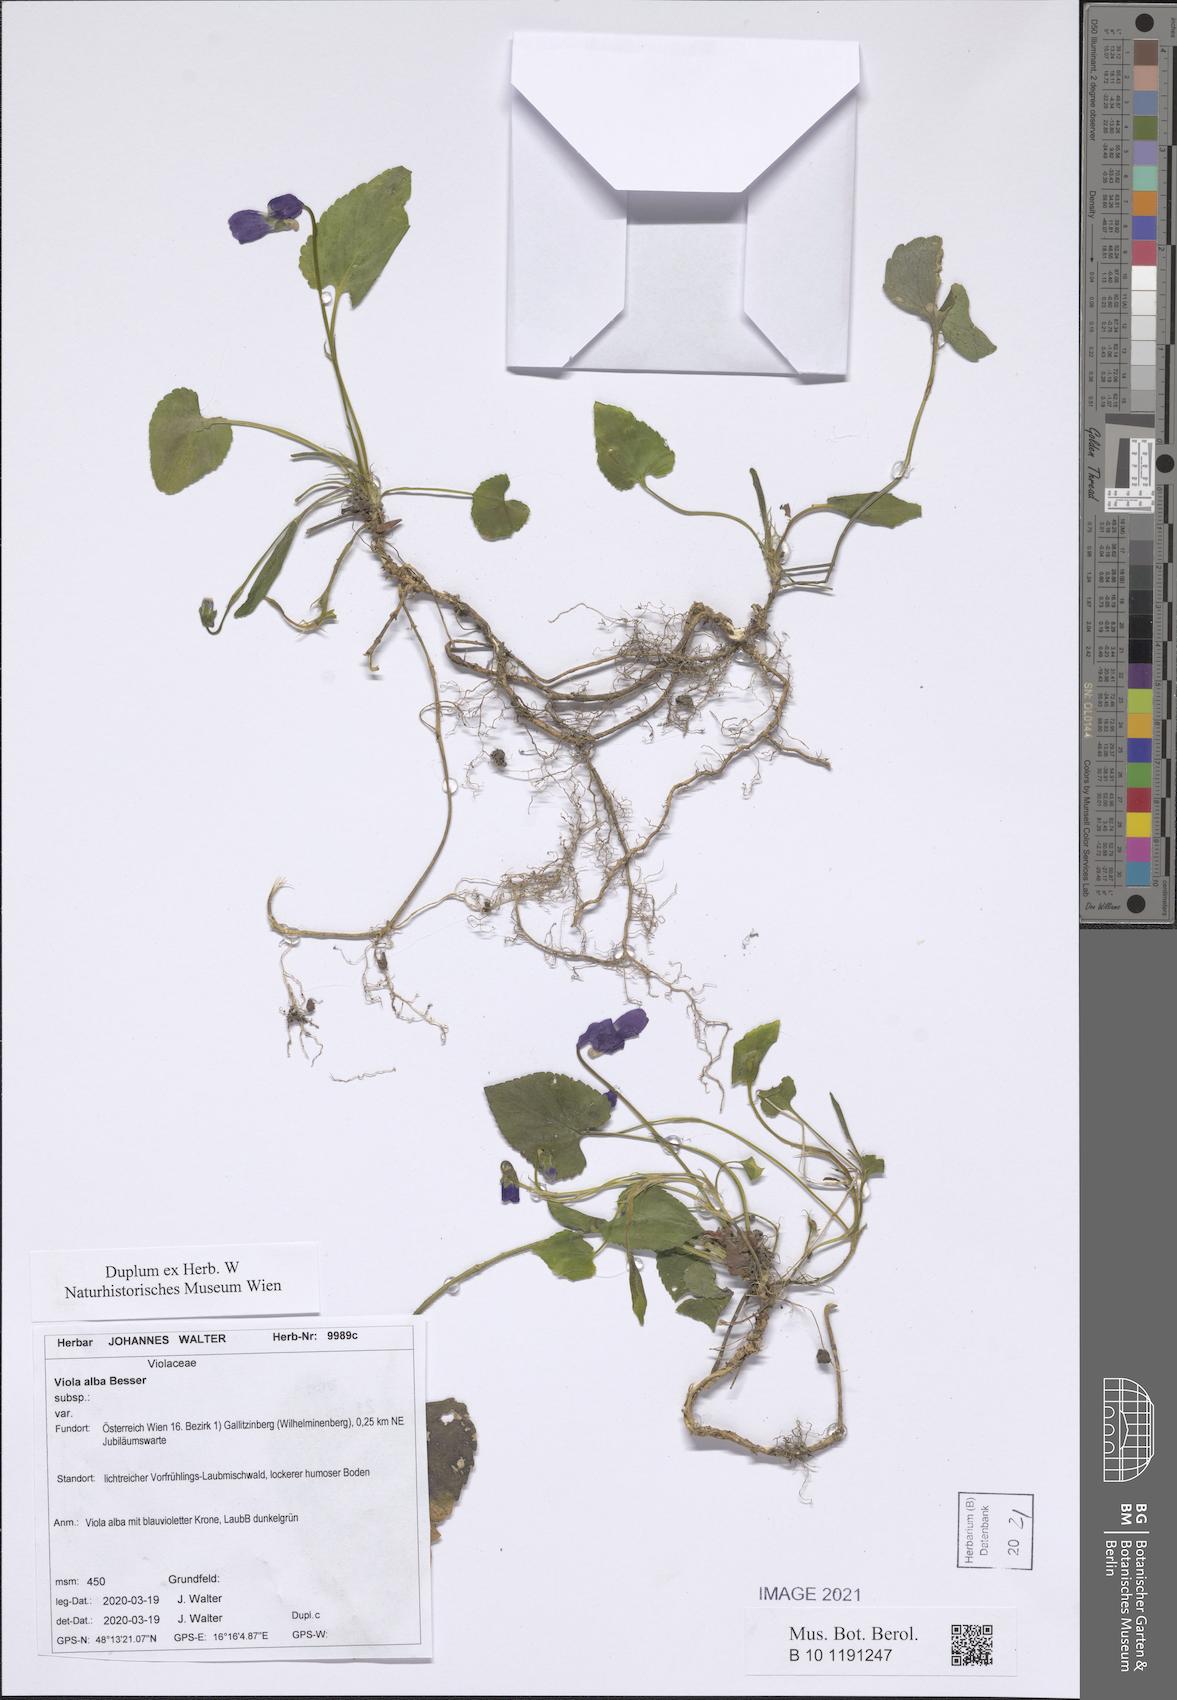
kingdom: Plantae
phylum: Tracheophyta
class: Magnoliopsida
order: Malpighiales
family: Violaceae
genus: Viola
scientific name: Viola alba
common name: White violet
